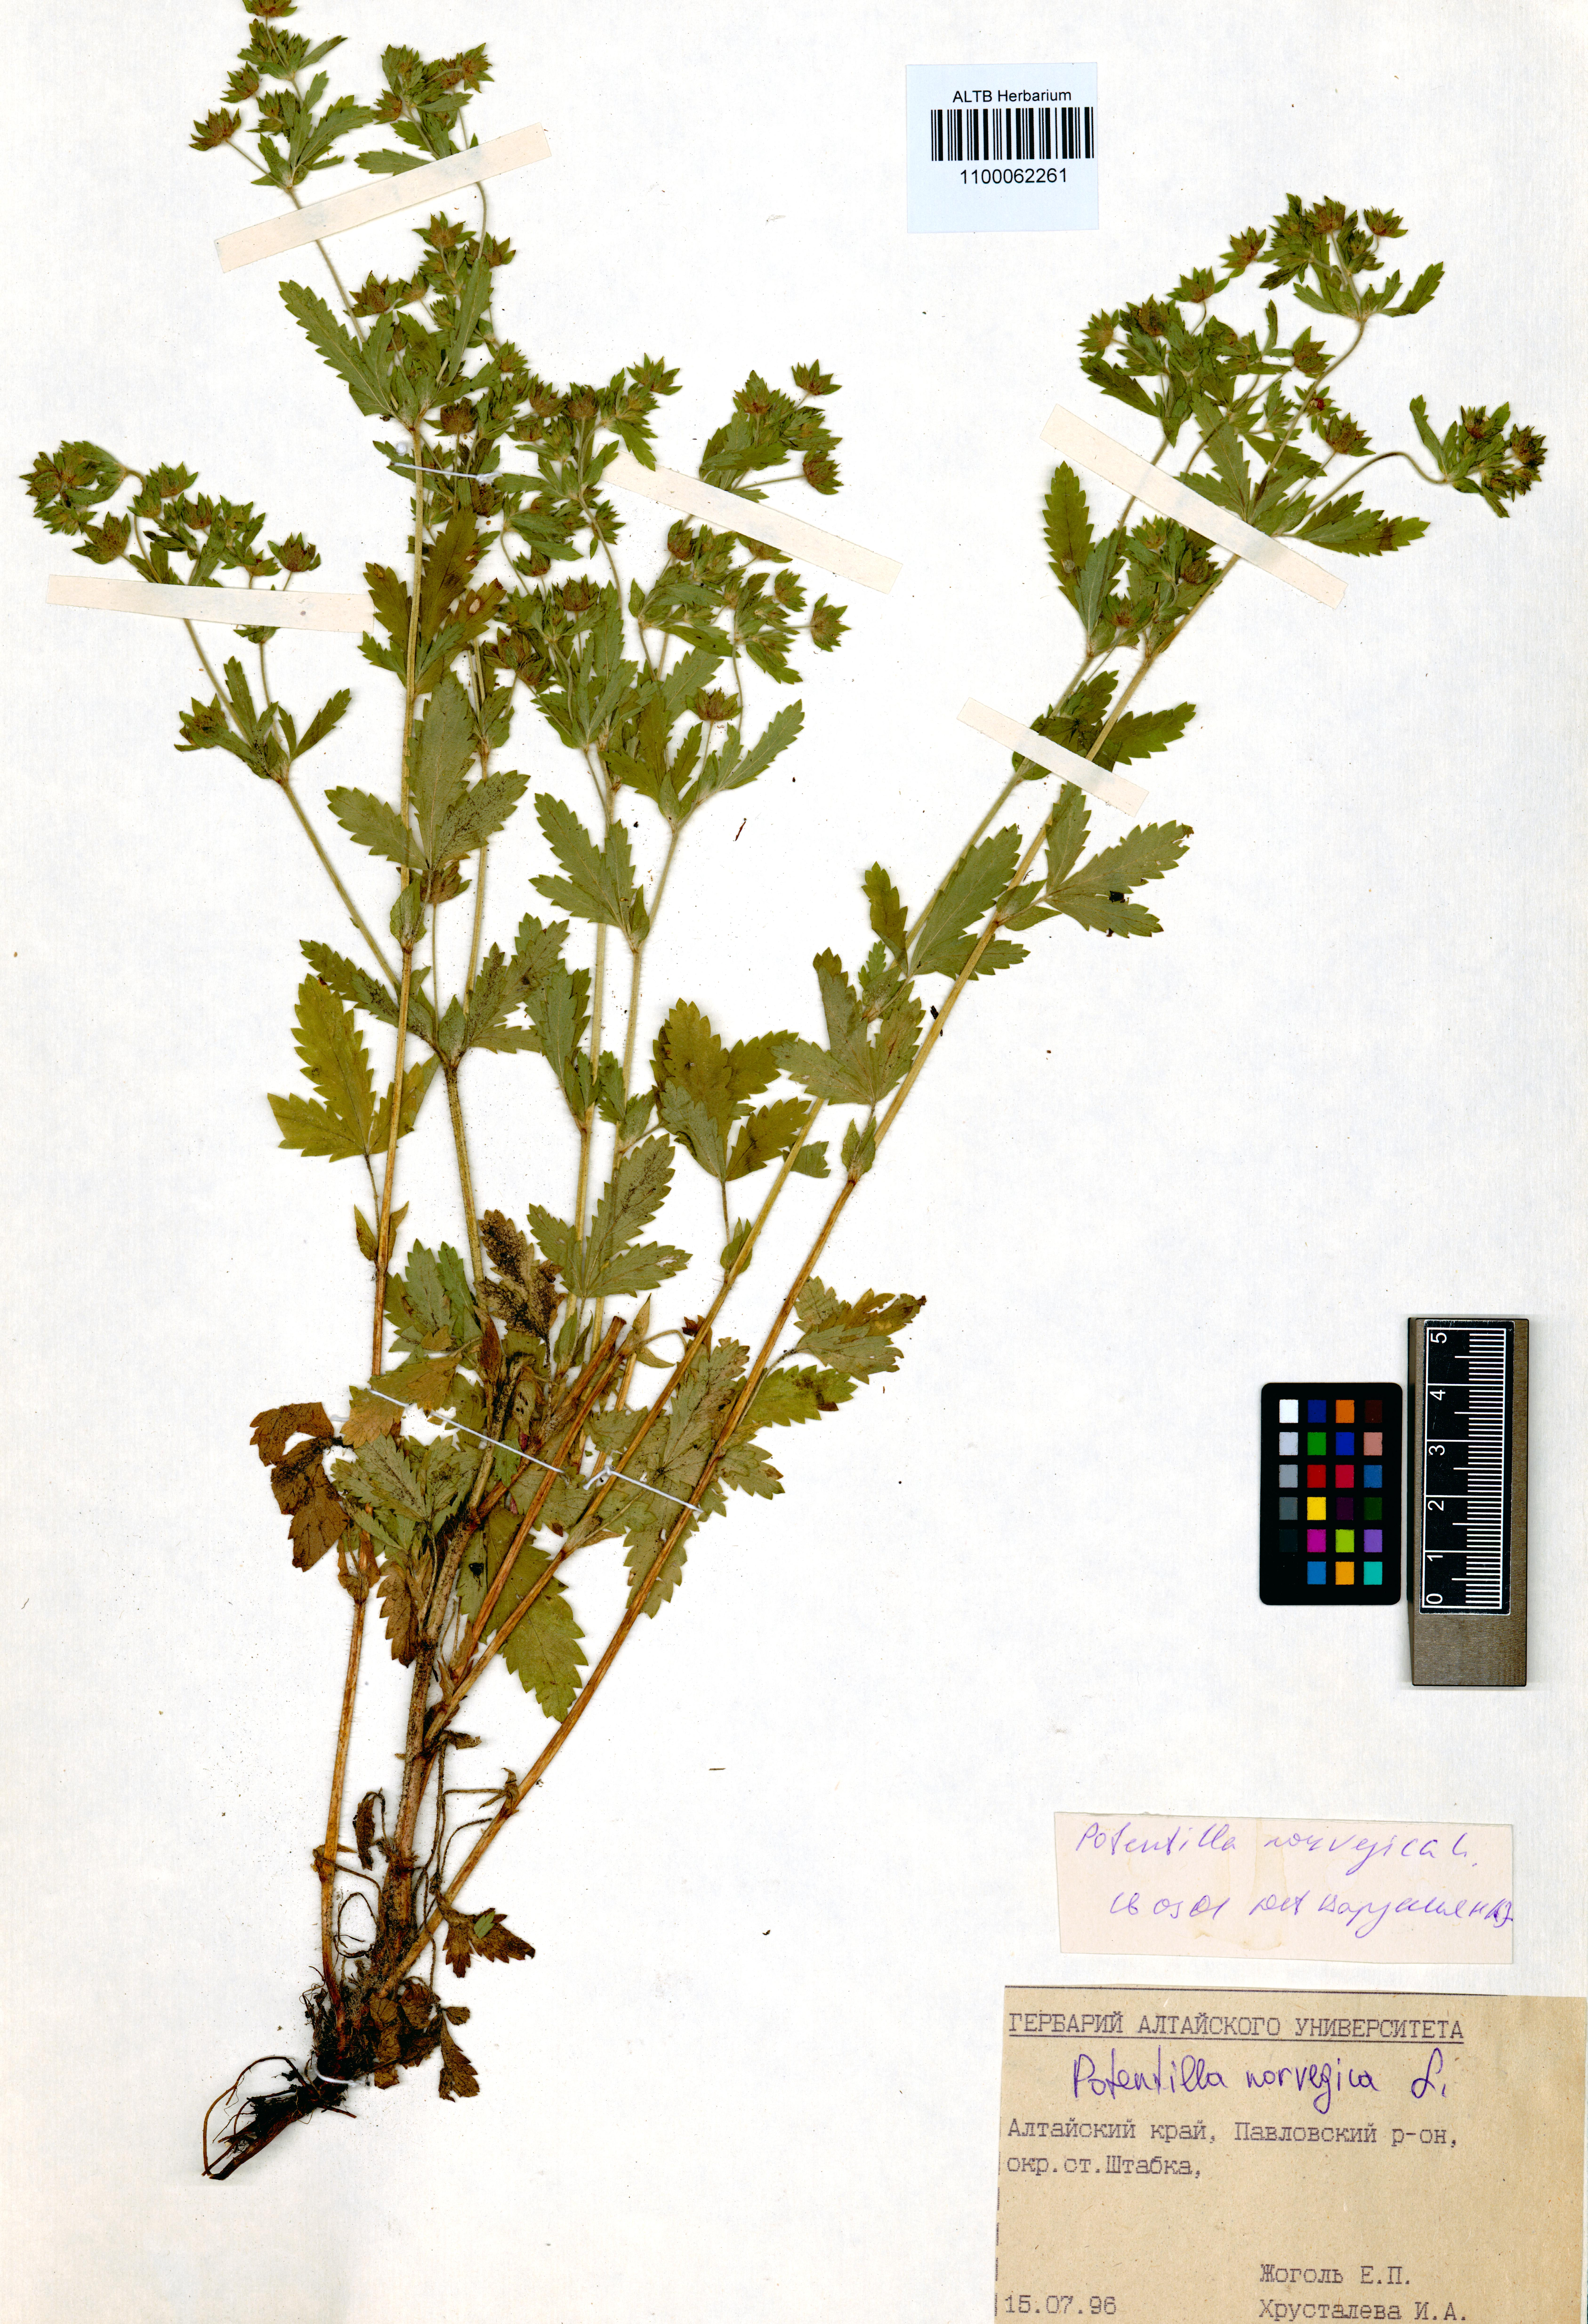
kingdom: Plantae
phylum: Tracheophyta
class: Magnoliopsida
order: Rosales
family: Rosaceae
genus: Potentilla
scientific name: Potentilla norvegica
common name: Ternate-leaved cinquefoil
